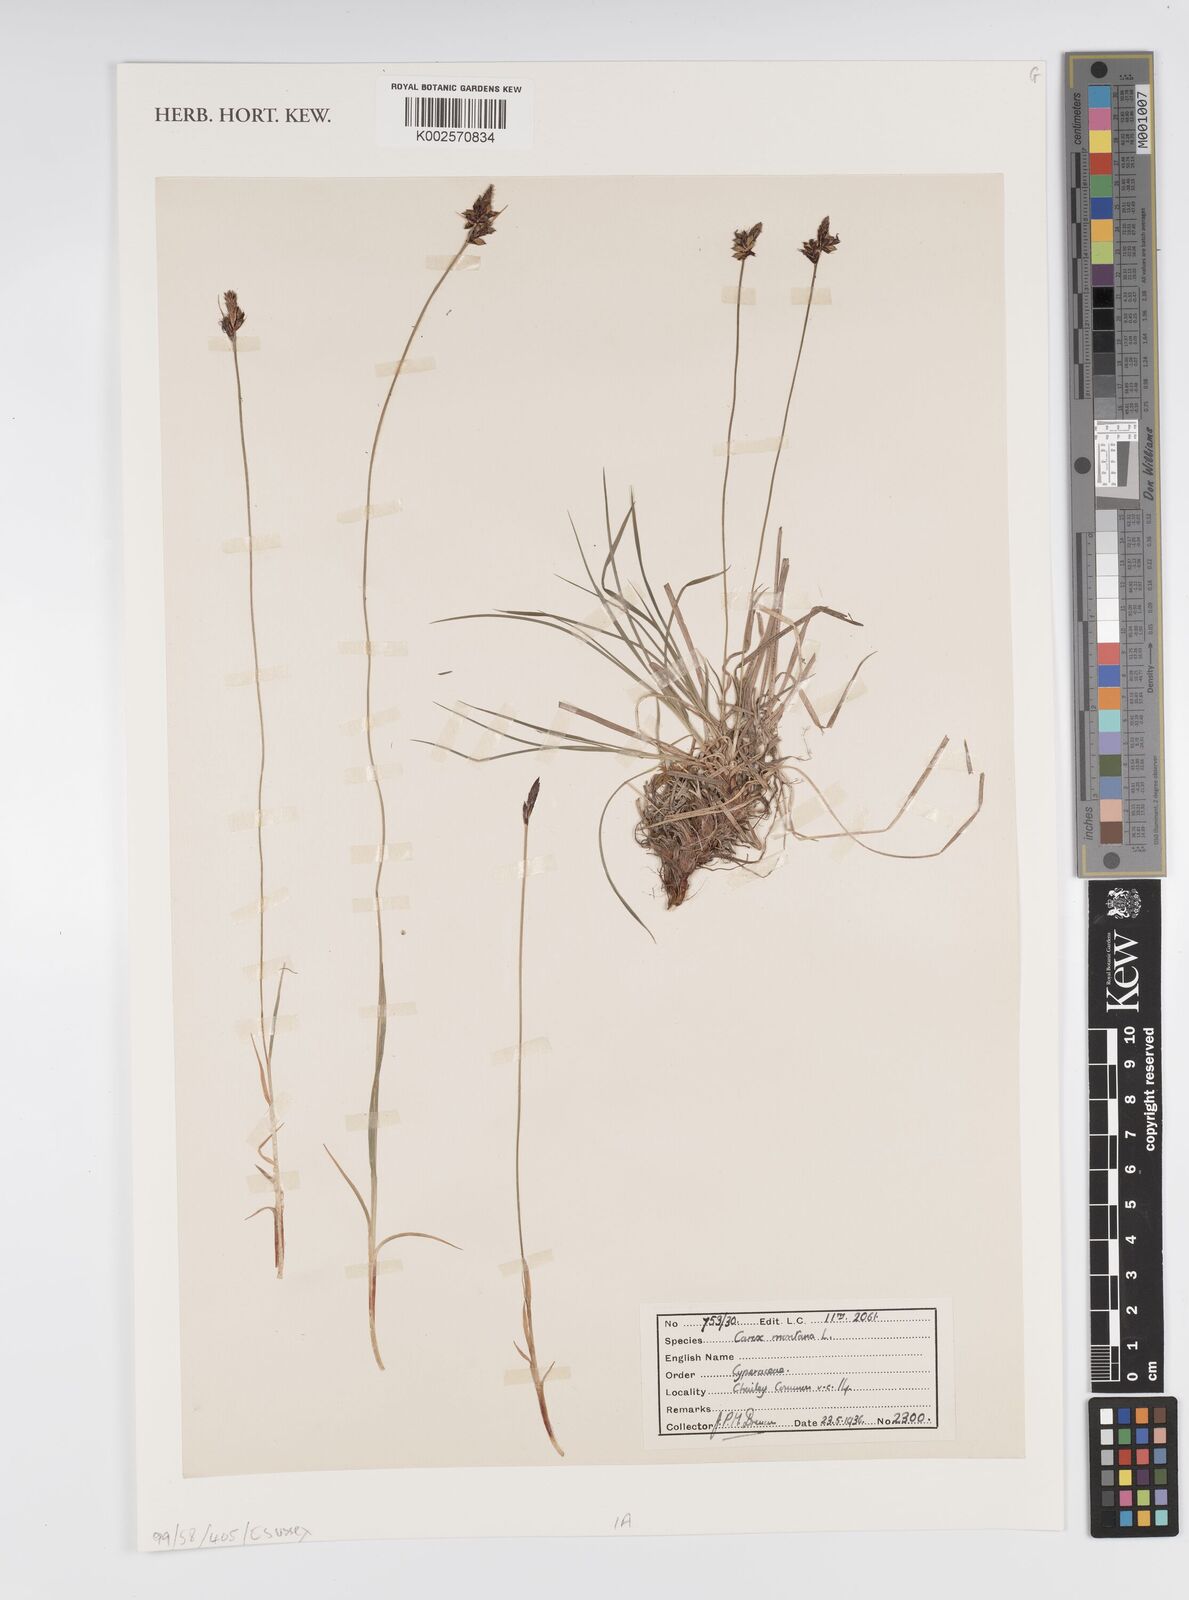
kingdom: Plantae
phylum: Tracheophyta
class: Liliopsida
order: Poales
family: Cyperaceae
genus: Carex
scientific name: Carex montana
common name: Soft-leaved sedge
